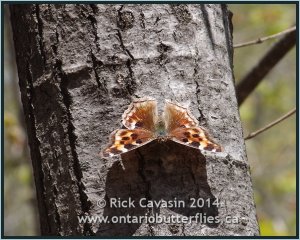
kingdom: Animalia
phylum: Arthropoda
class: Insecta
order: Lepidoptera
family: Nymphalidae
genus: Polygonia
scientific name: Polygonia vaualbum
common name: Compton Tortoiseshell
